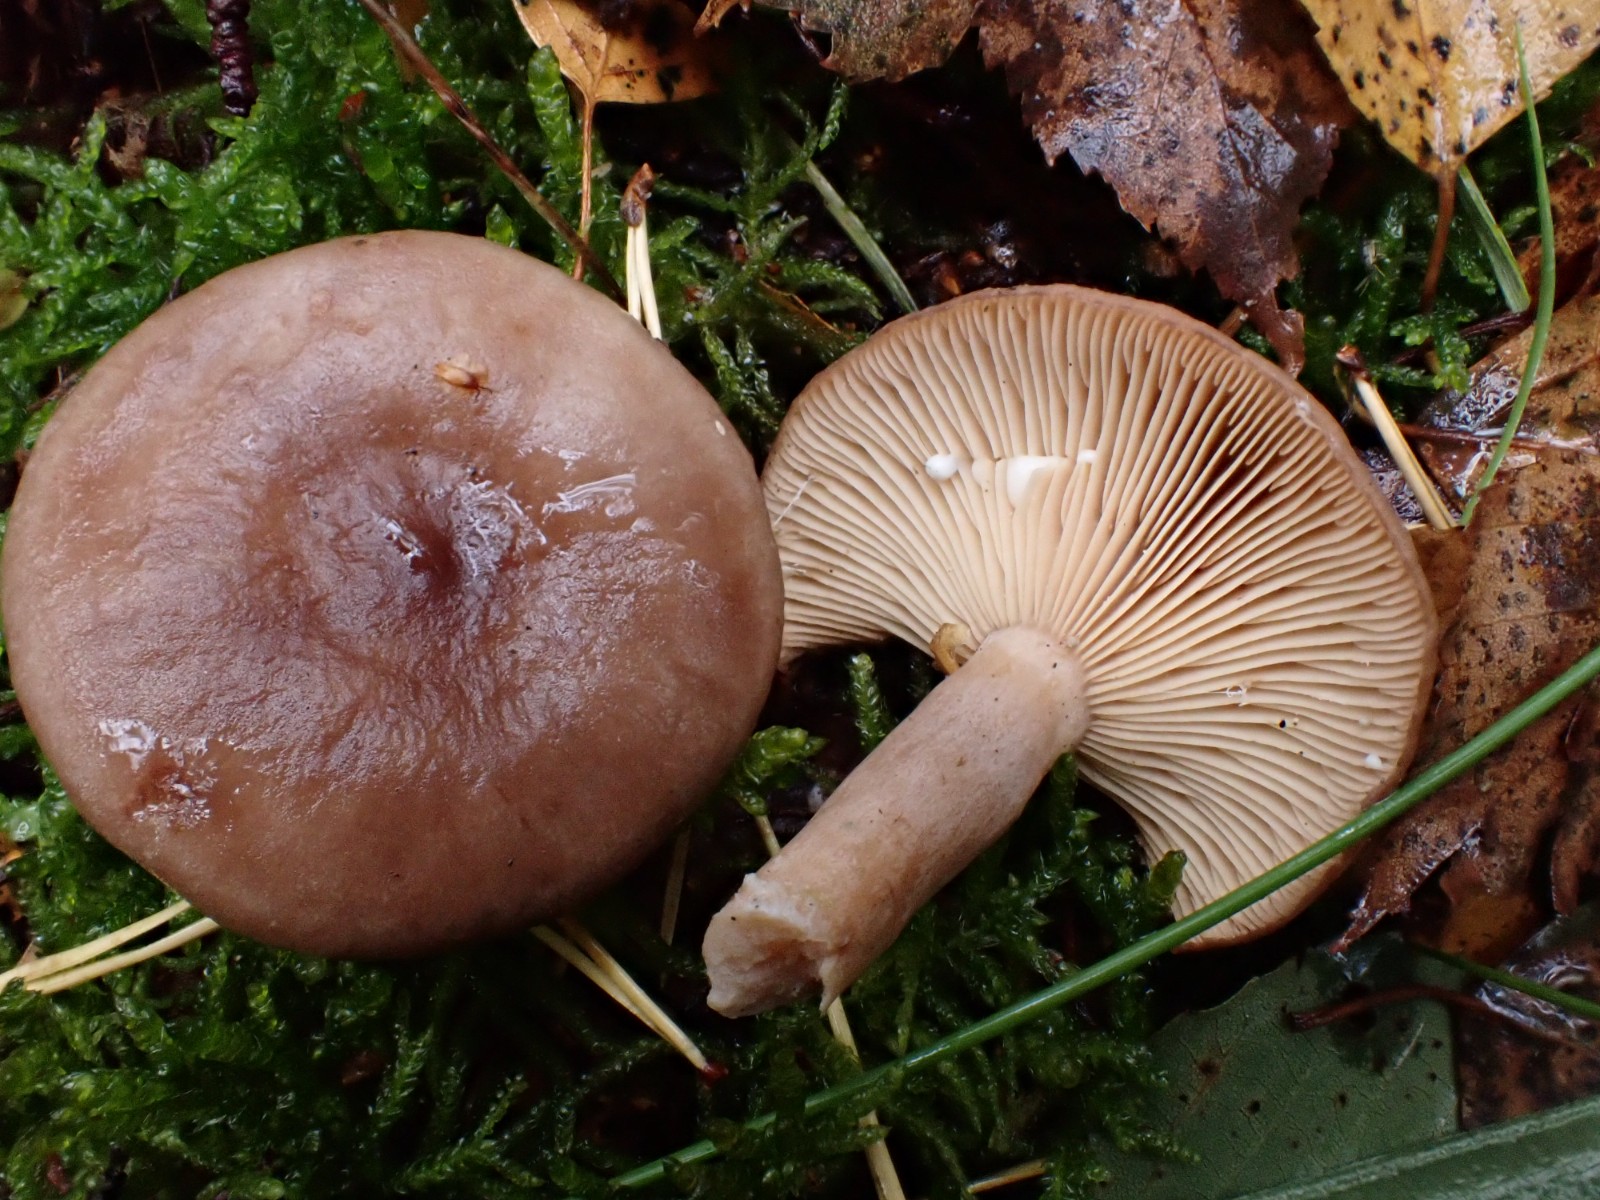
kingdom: Fungi
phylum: Basidiomycota
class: Agaricomycetes
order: Russulales
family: Russulaceae
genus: Lactarius
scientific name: Lactarius vietus
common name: violetgrå mælkehat
